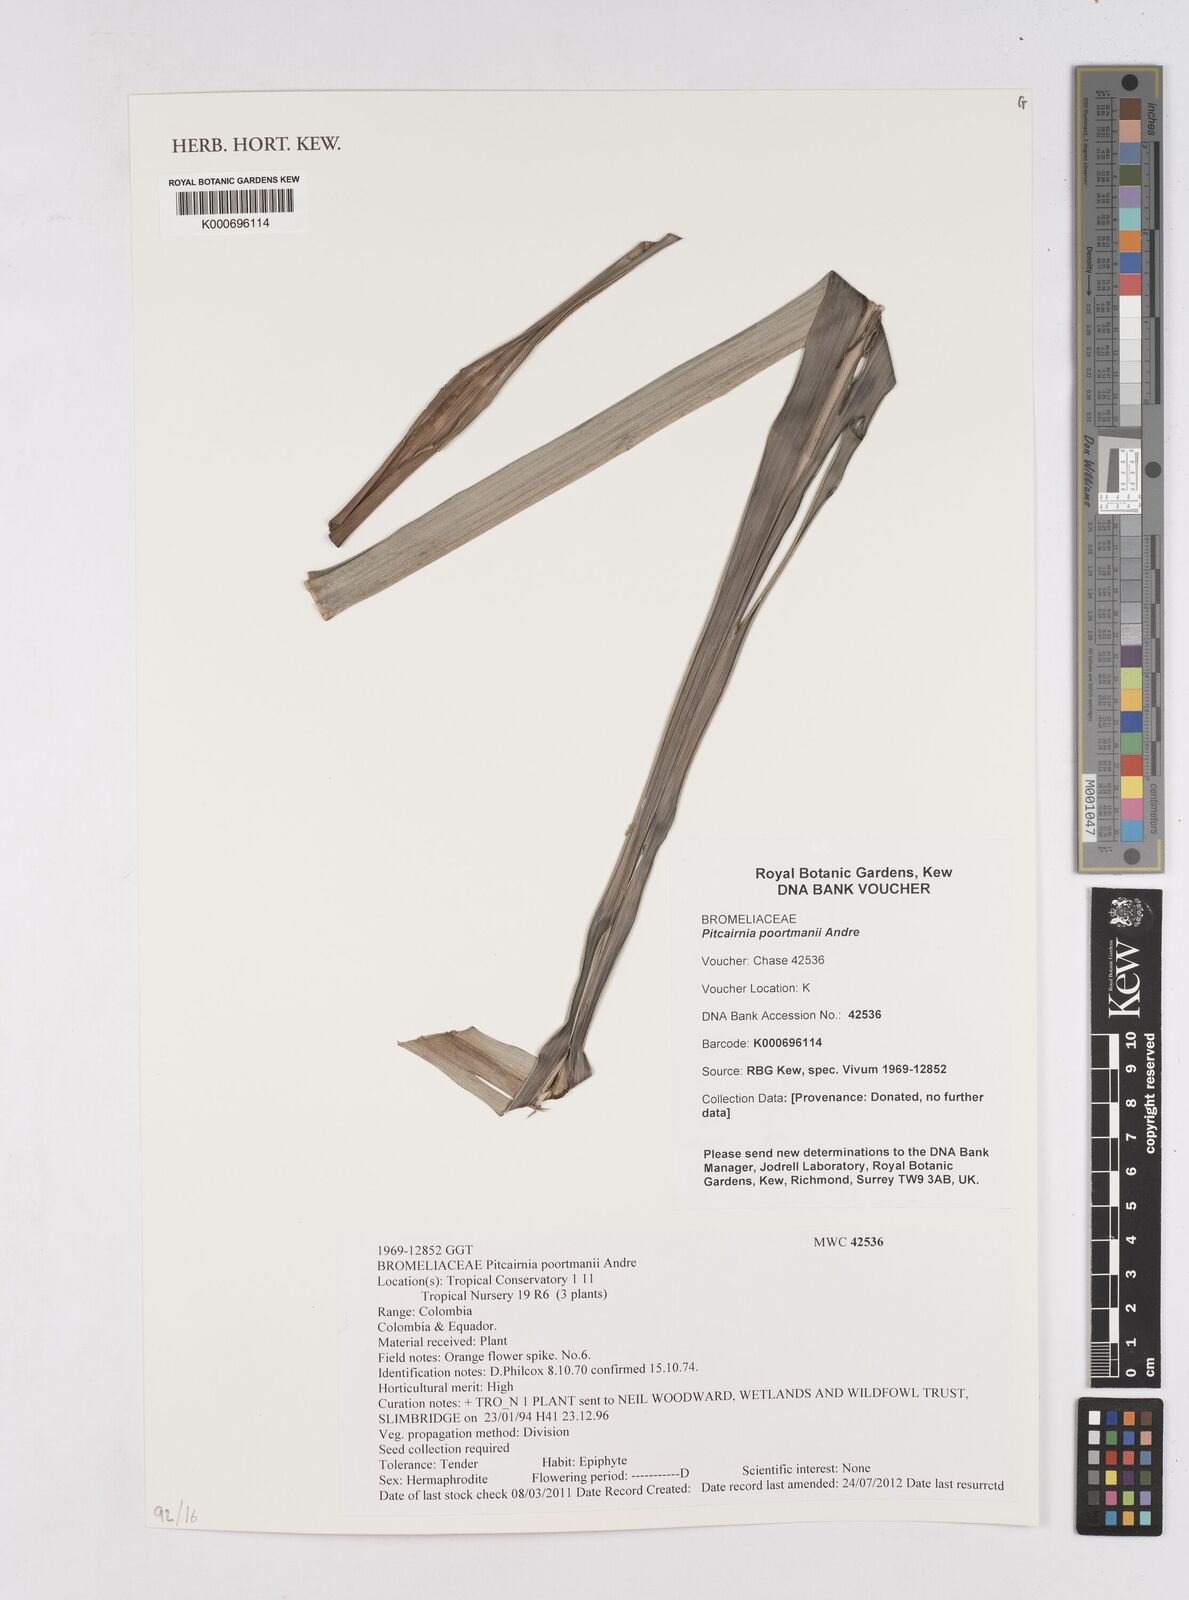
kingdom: Plantae
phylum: Tracheophyta
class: Liliopsida
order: Poales
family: Bromeliaceae
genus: Pitcairnia
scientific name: Pitcairnia poortmanii
